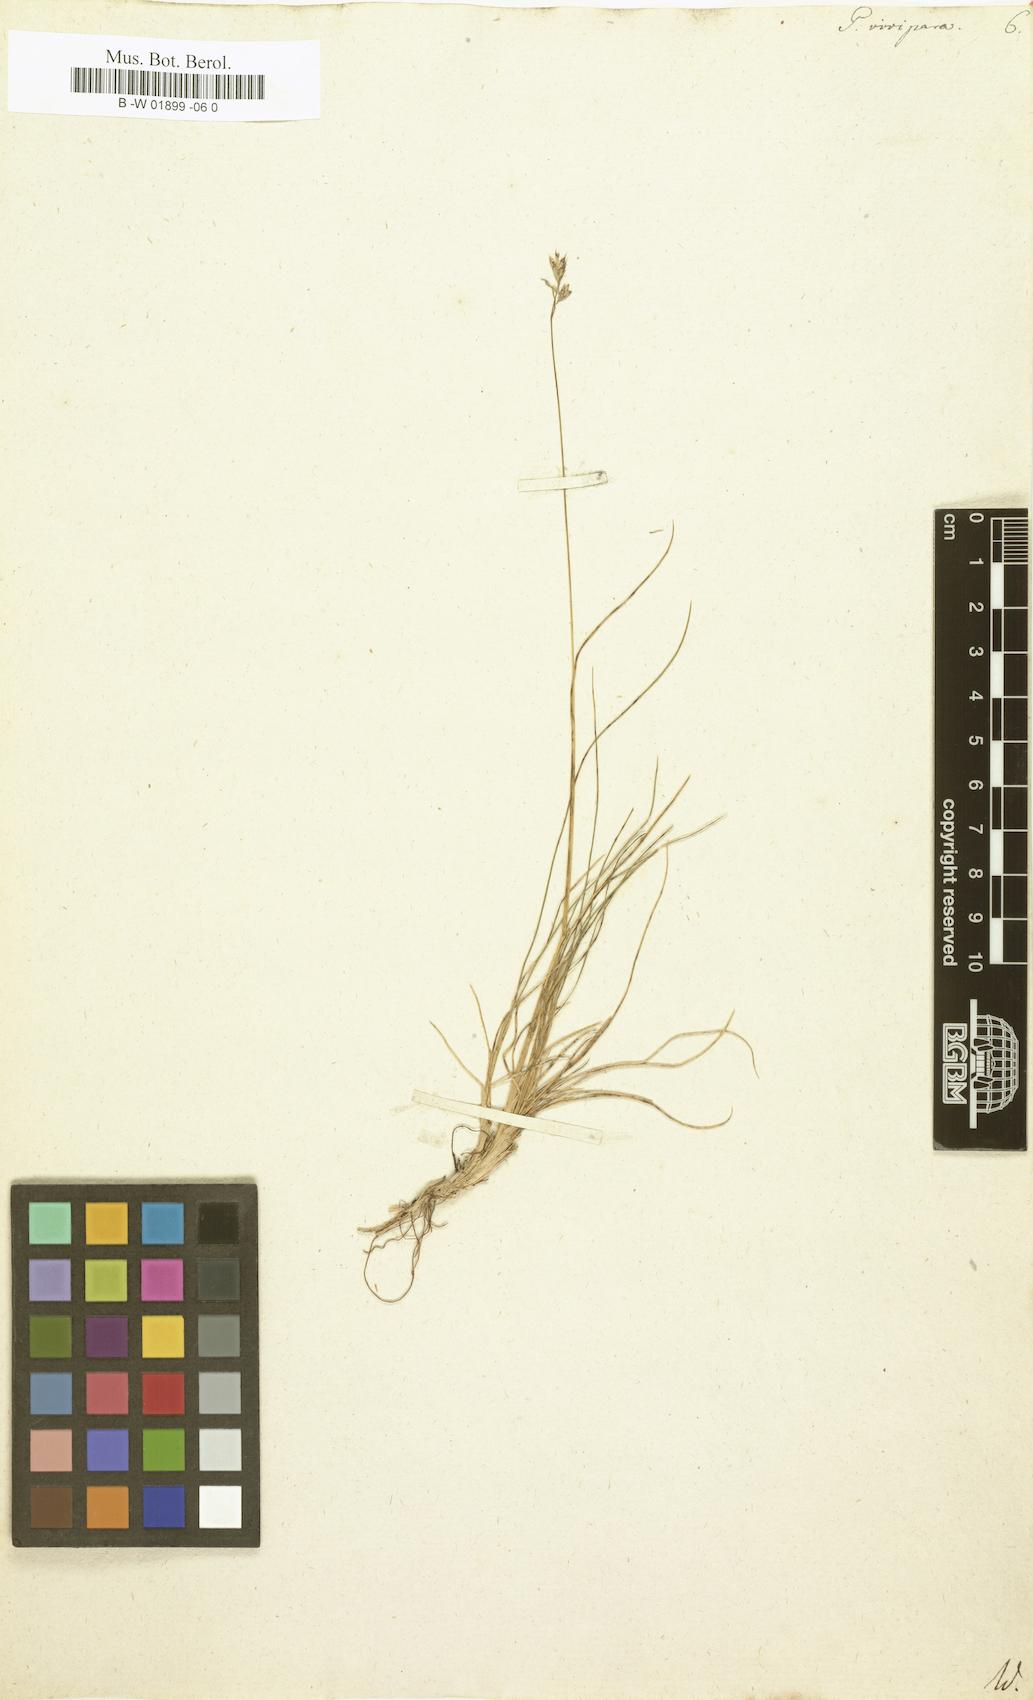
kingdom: Plantae
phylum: Tracheophyta
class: Liliopsida
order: Poales
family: Poaceae
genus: Poa
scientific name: Poa alpina
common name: Alpine bluegrass
